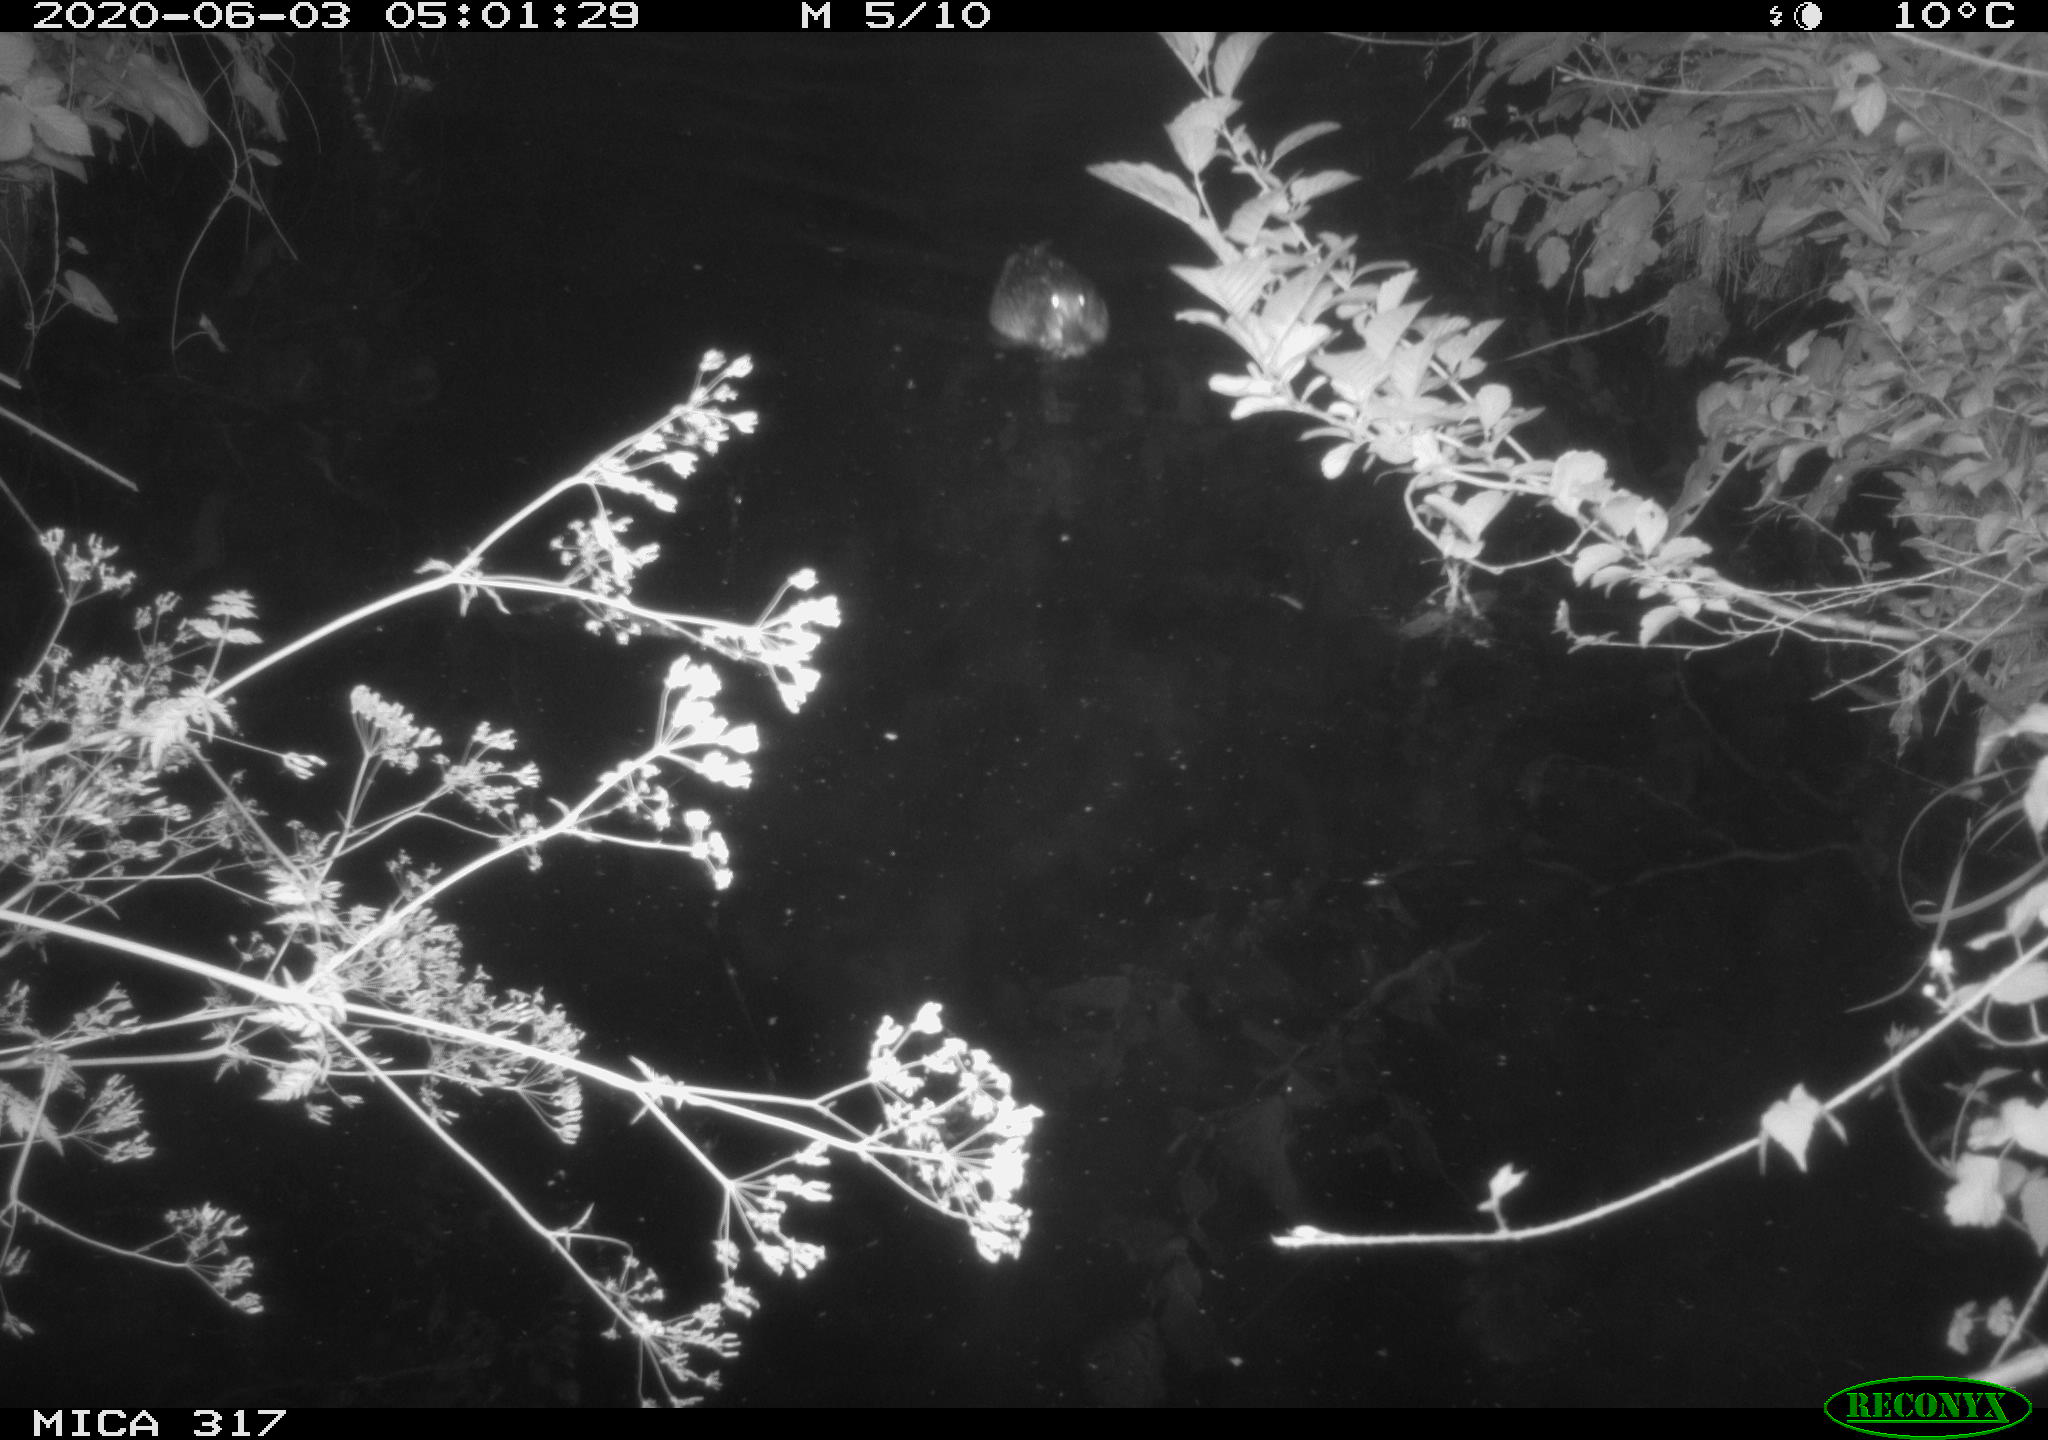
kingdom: Animalia
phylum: Chordata
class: Aves
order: Anseriformes
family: Anatidae
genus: Anas
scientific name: Anas platyrhynchos
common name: Mallard
